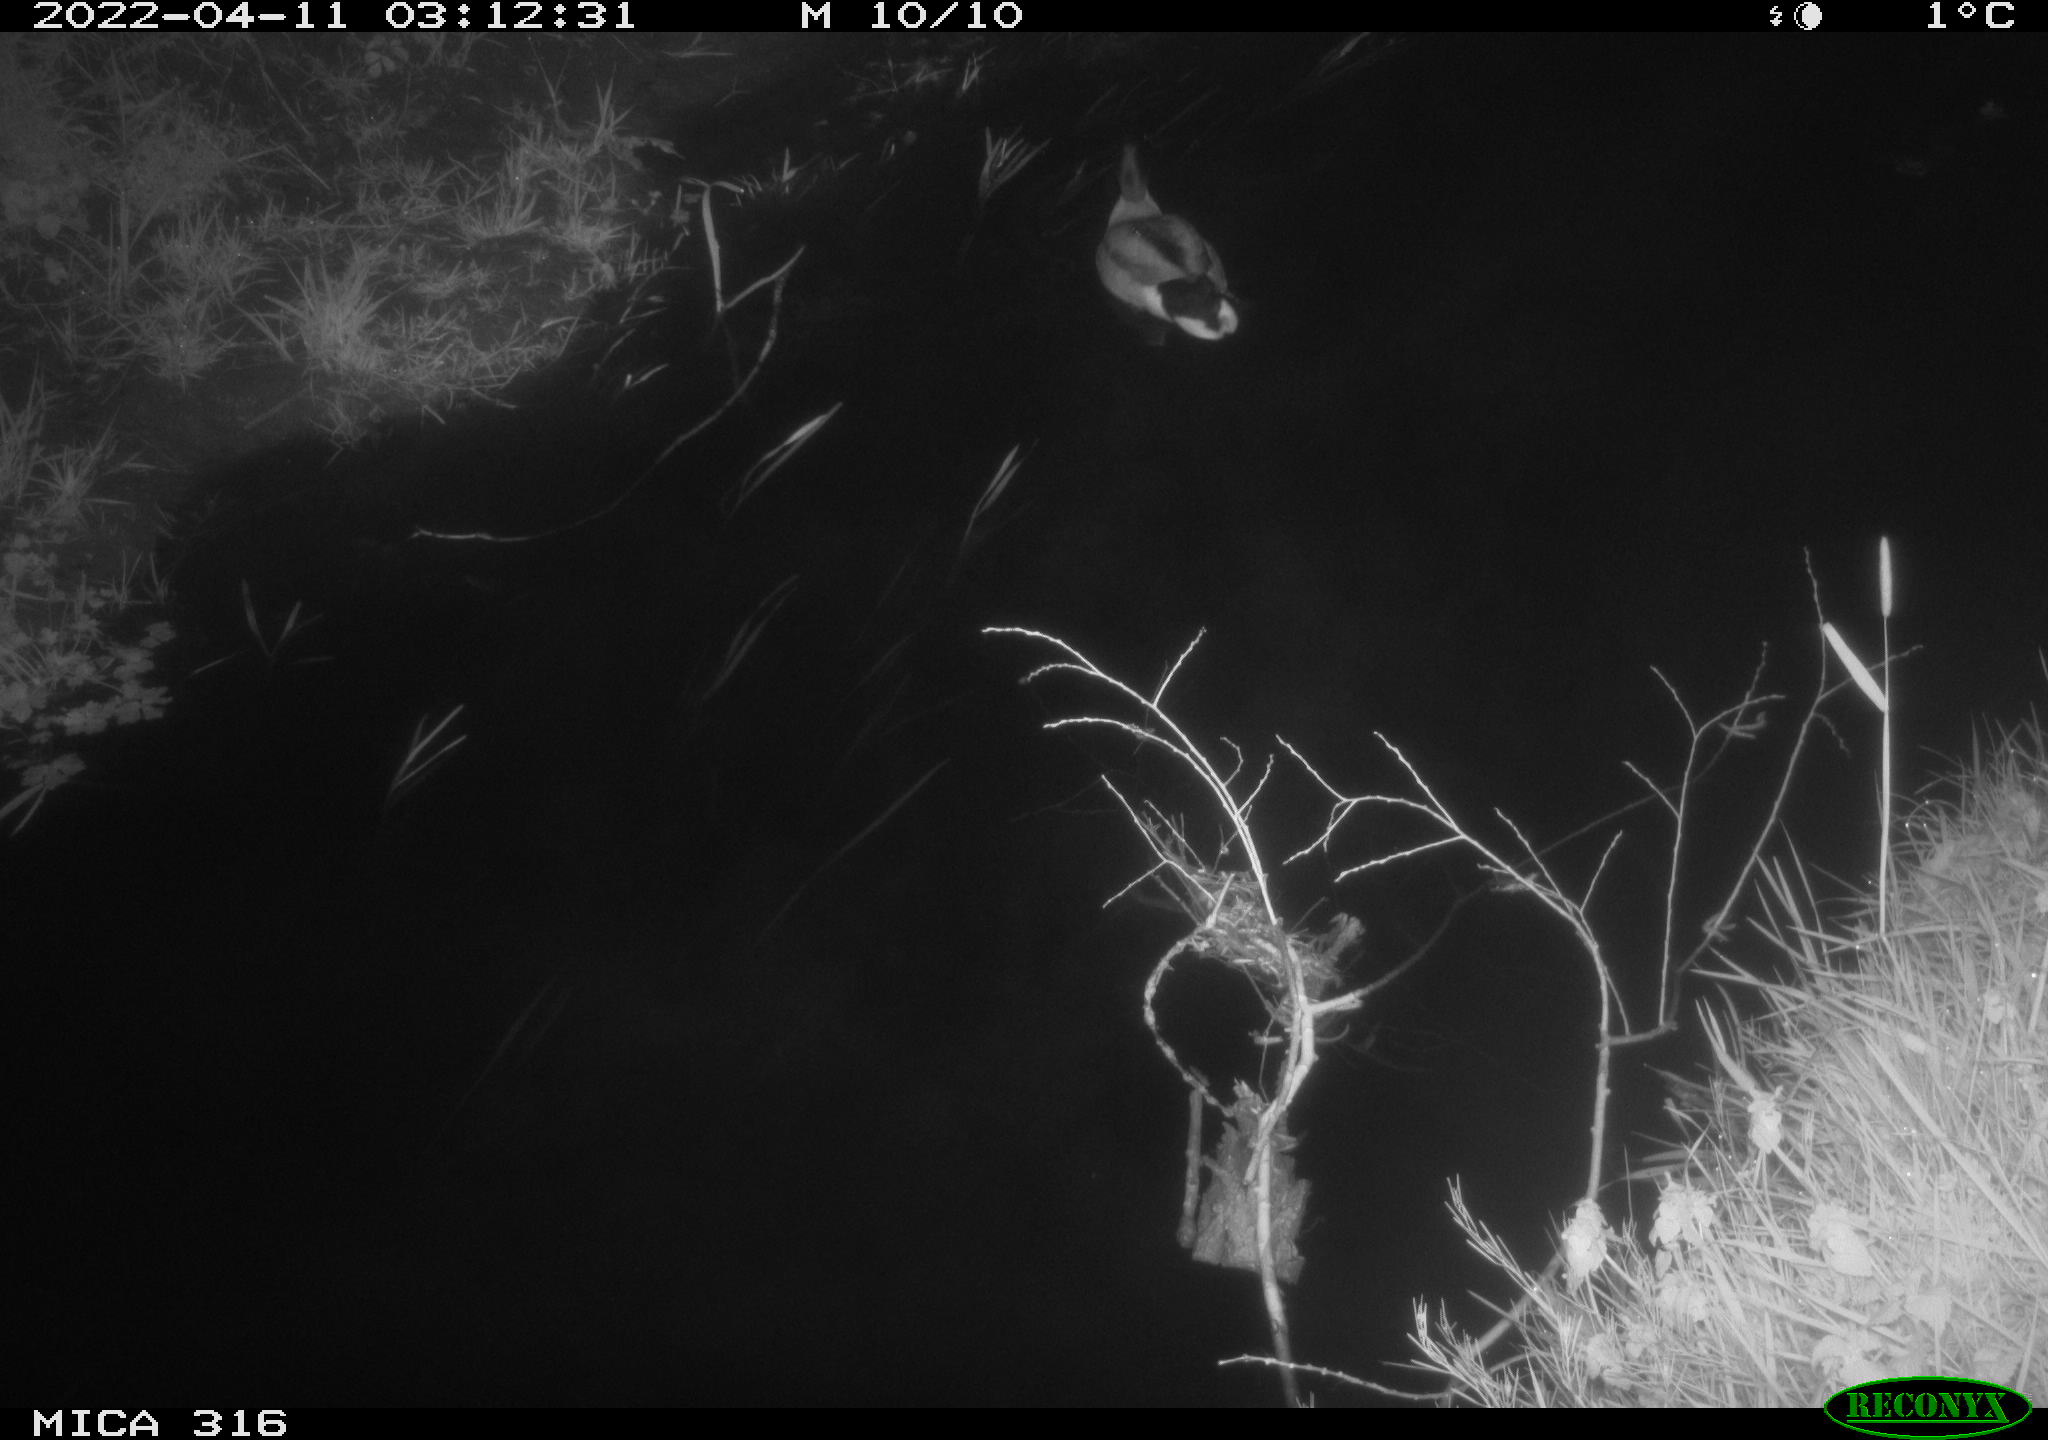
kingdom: Animalia
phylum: Chordata
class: Aves
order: Anseriformes
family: Anatidae
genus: Anas
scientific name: Anas platyrhynchos
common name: Mallard
